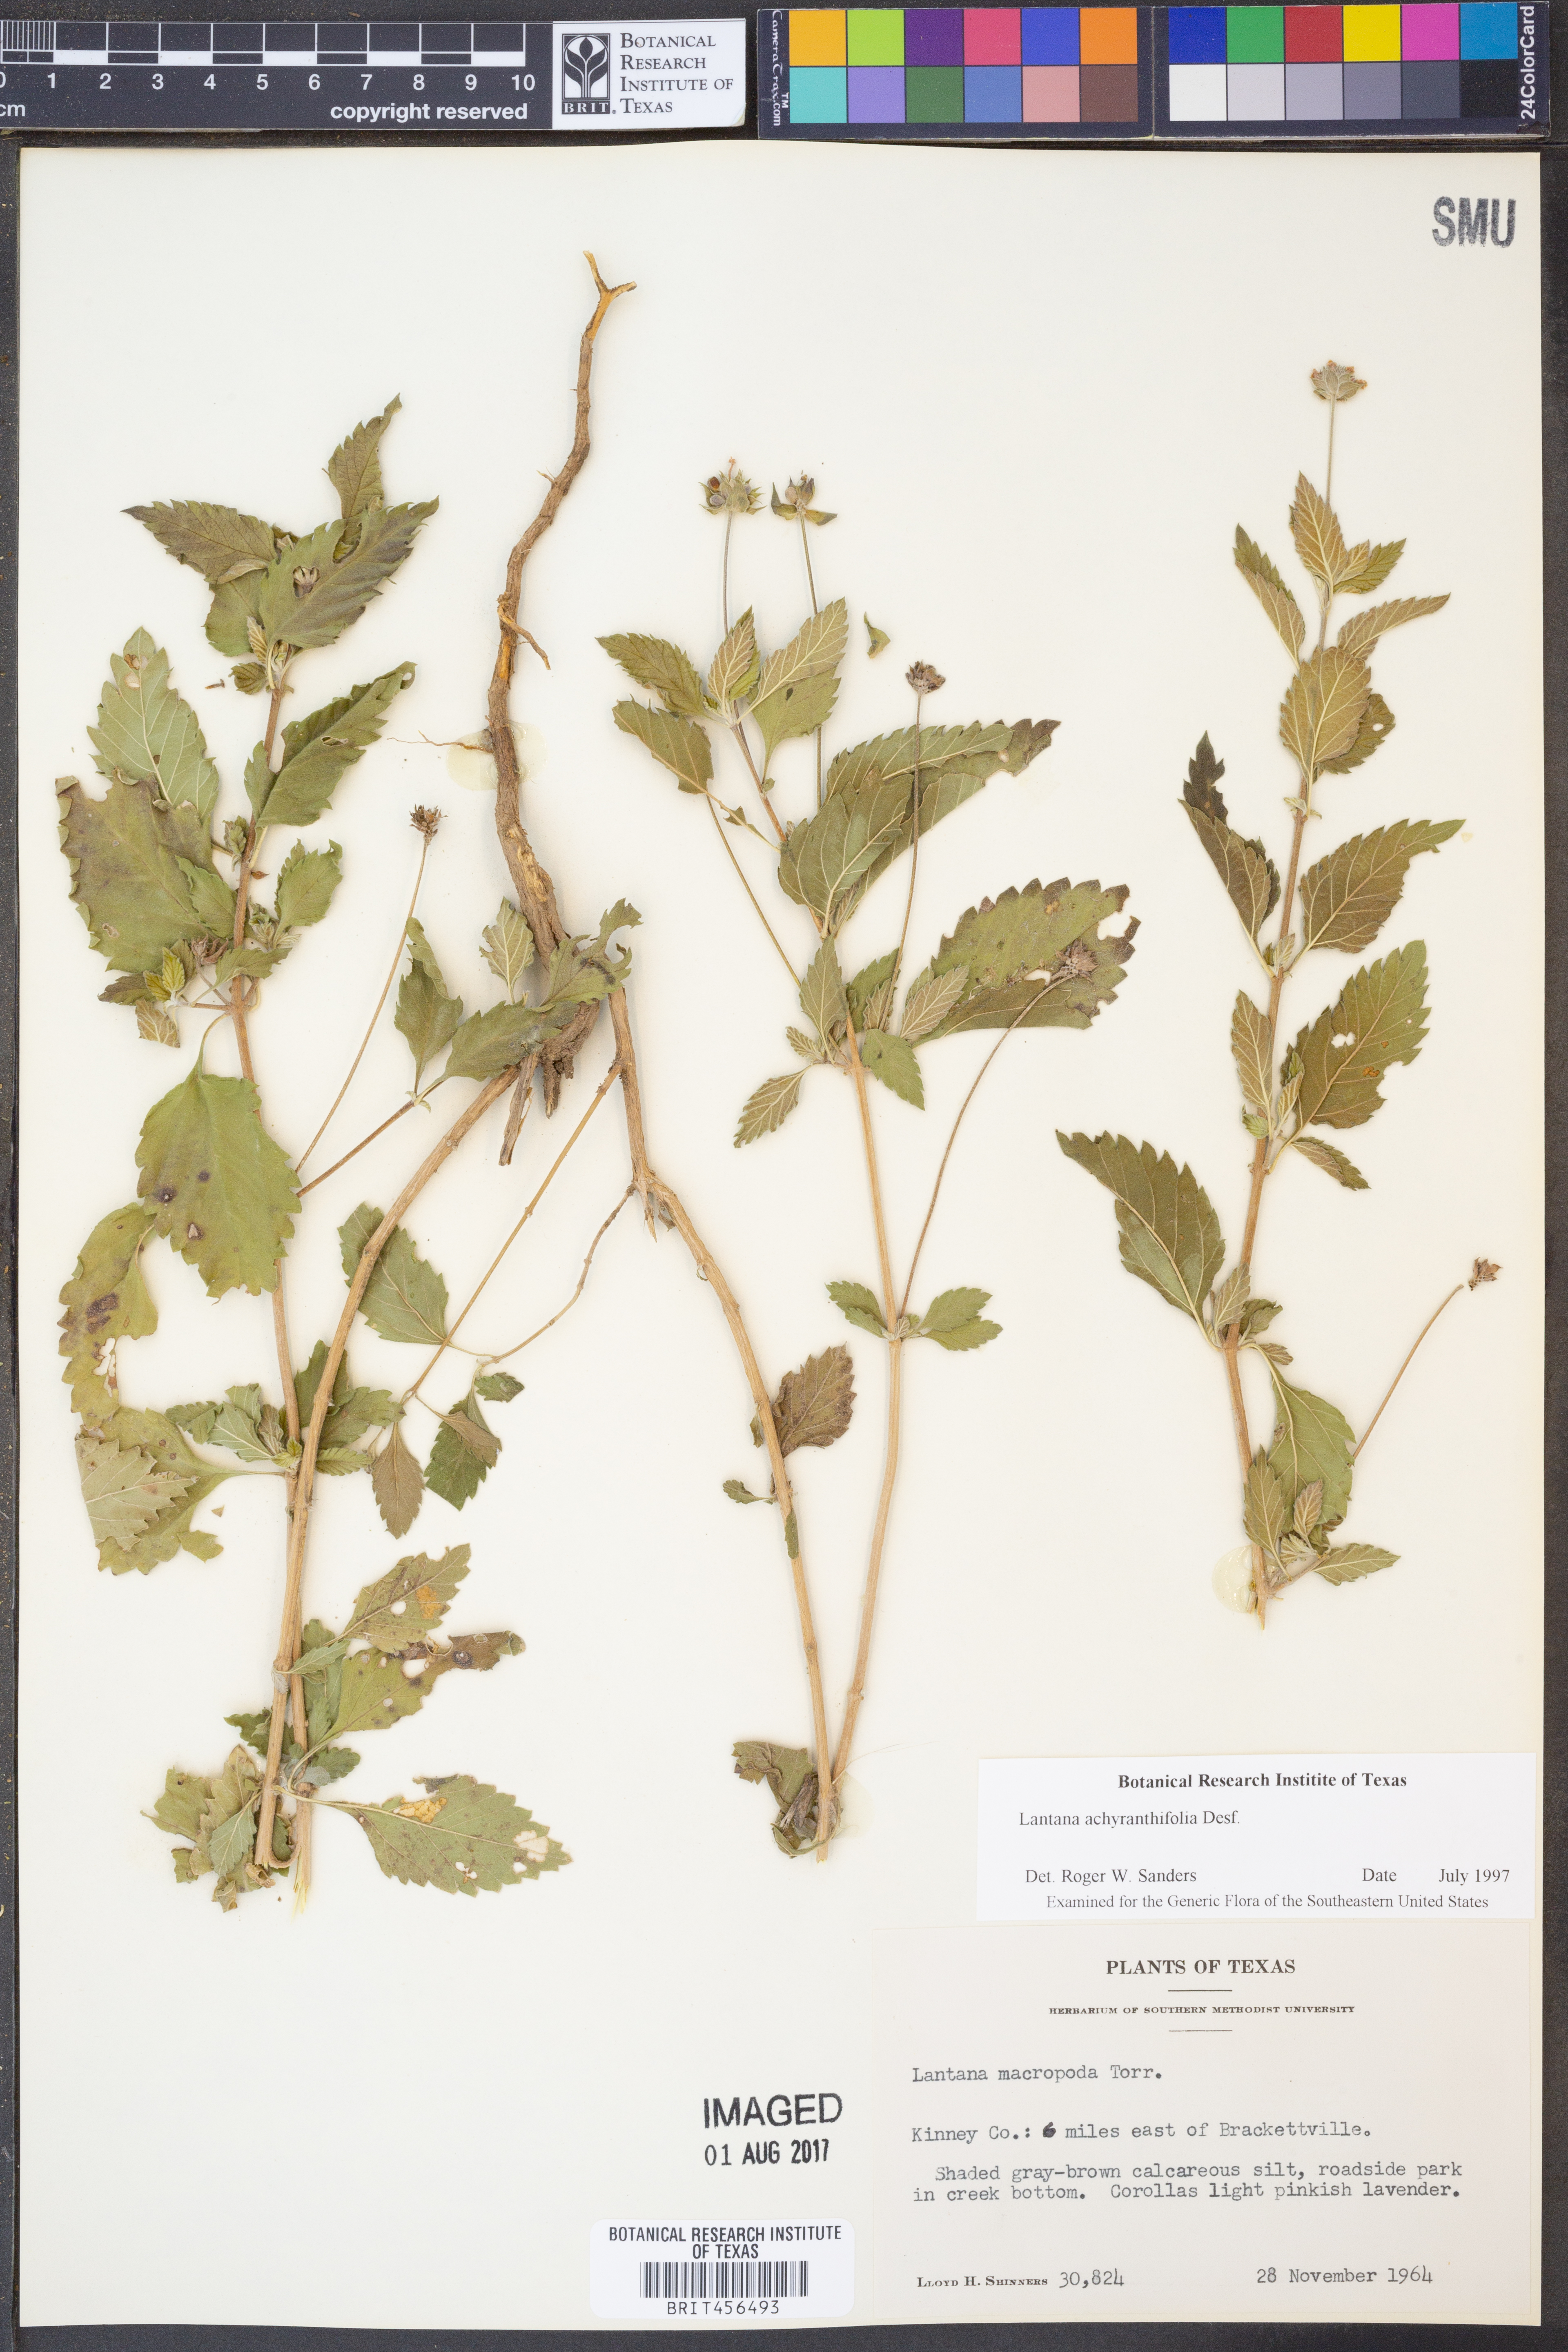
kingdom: Plantae
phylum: Tracheophyta
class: Magnoliopsida
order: Lamiales
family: Verbenaceae
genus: Lantana
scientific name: Lantana achyranthifolia
